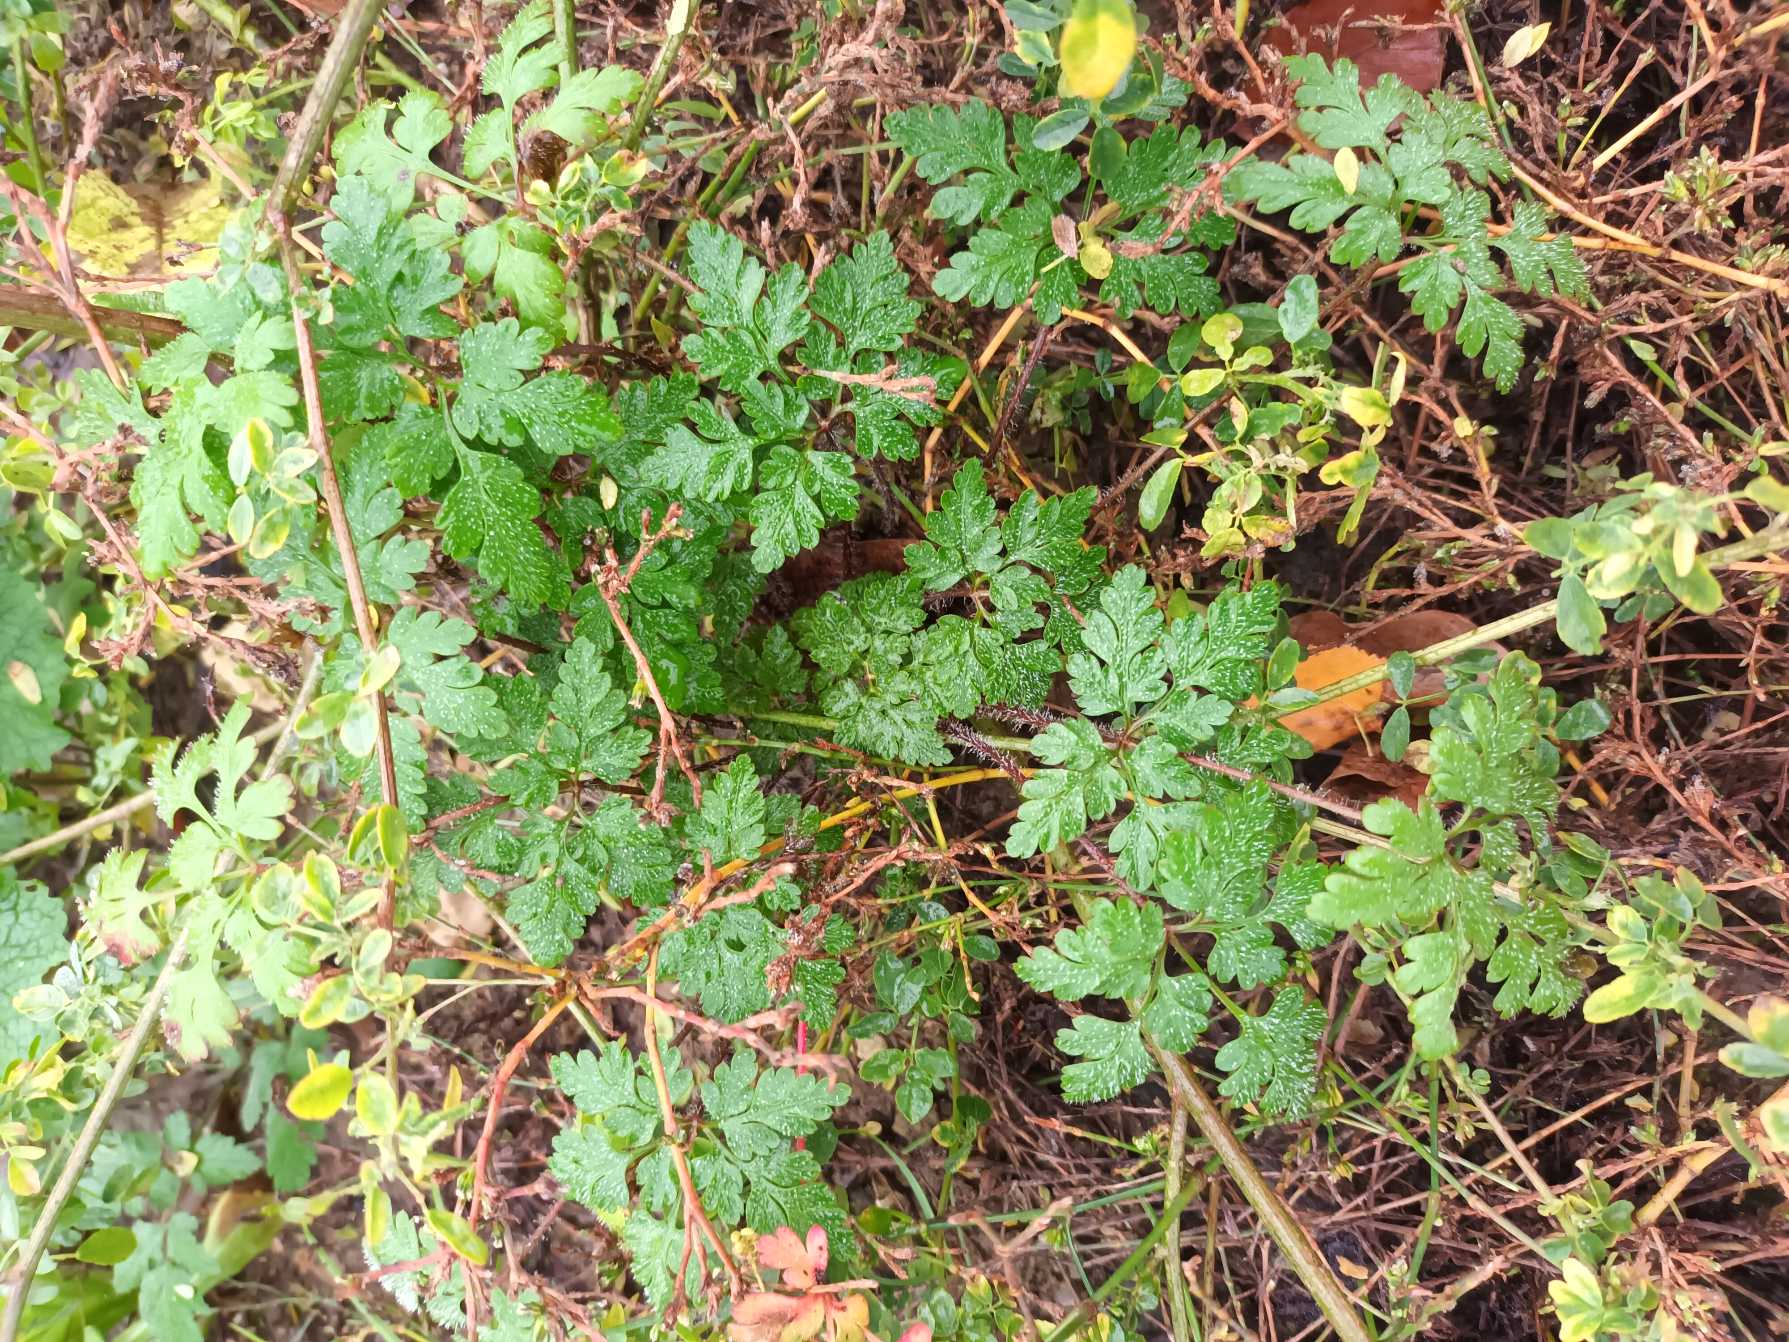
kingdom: Plantae
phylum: Tracheophyta
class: Magnoliopsida
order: Geraniales
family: Geraniaceae
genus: Geranium
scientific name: Geranium robertianum
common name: Stinkende storkenæb
